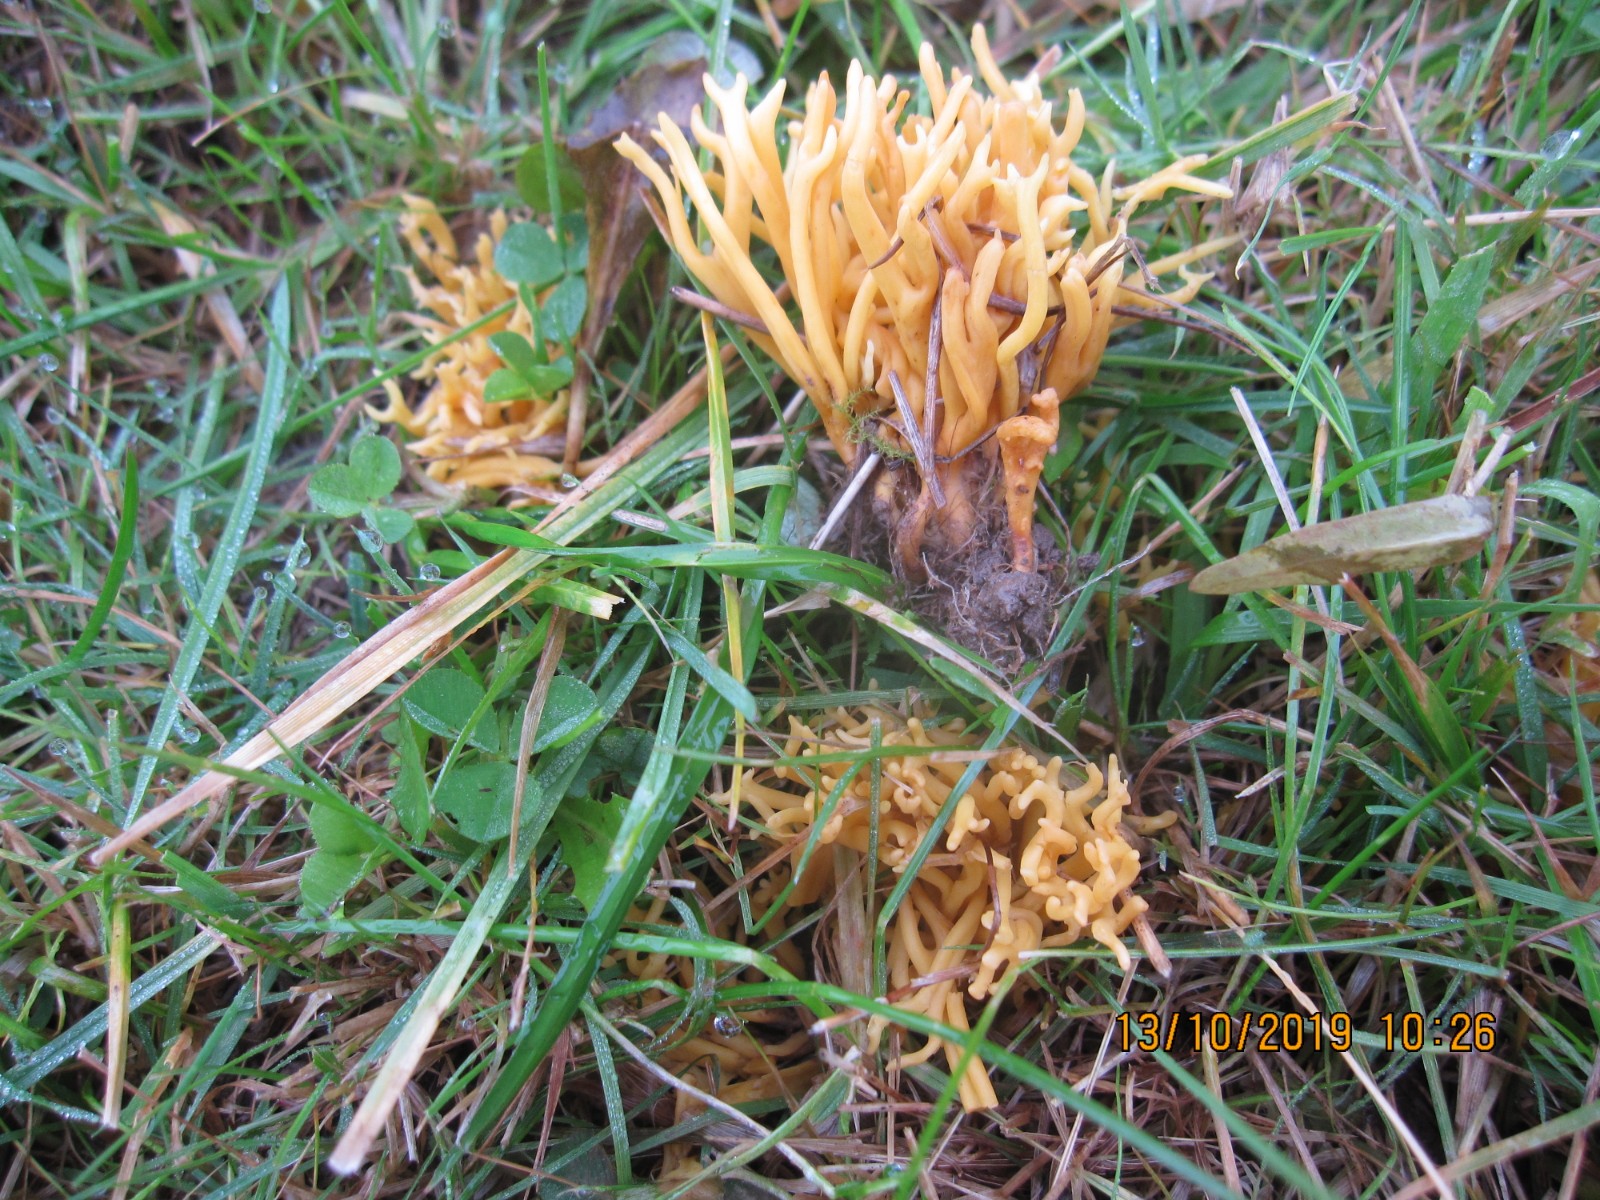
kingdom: Fungi
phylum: Basidiomycota
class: Agaricomycetes
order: Agaricales
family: Clavariaceae
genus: Clavulinopsis
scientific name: Clavulinopsis corniculata
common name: eng-køllesvamp
